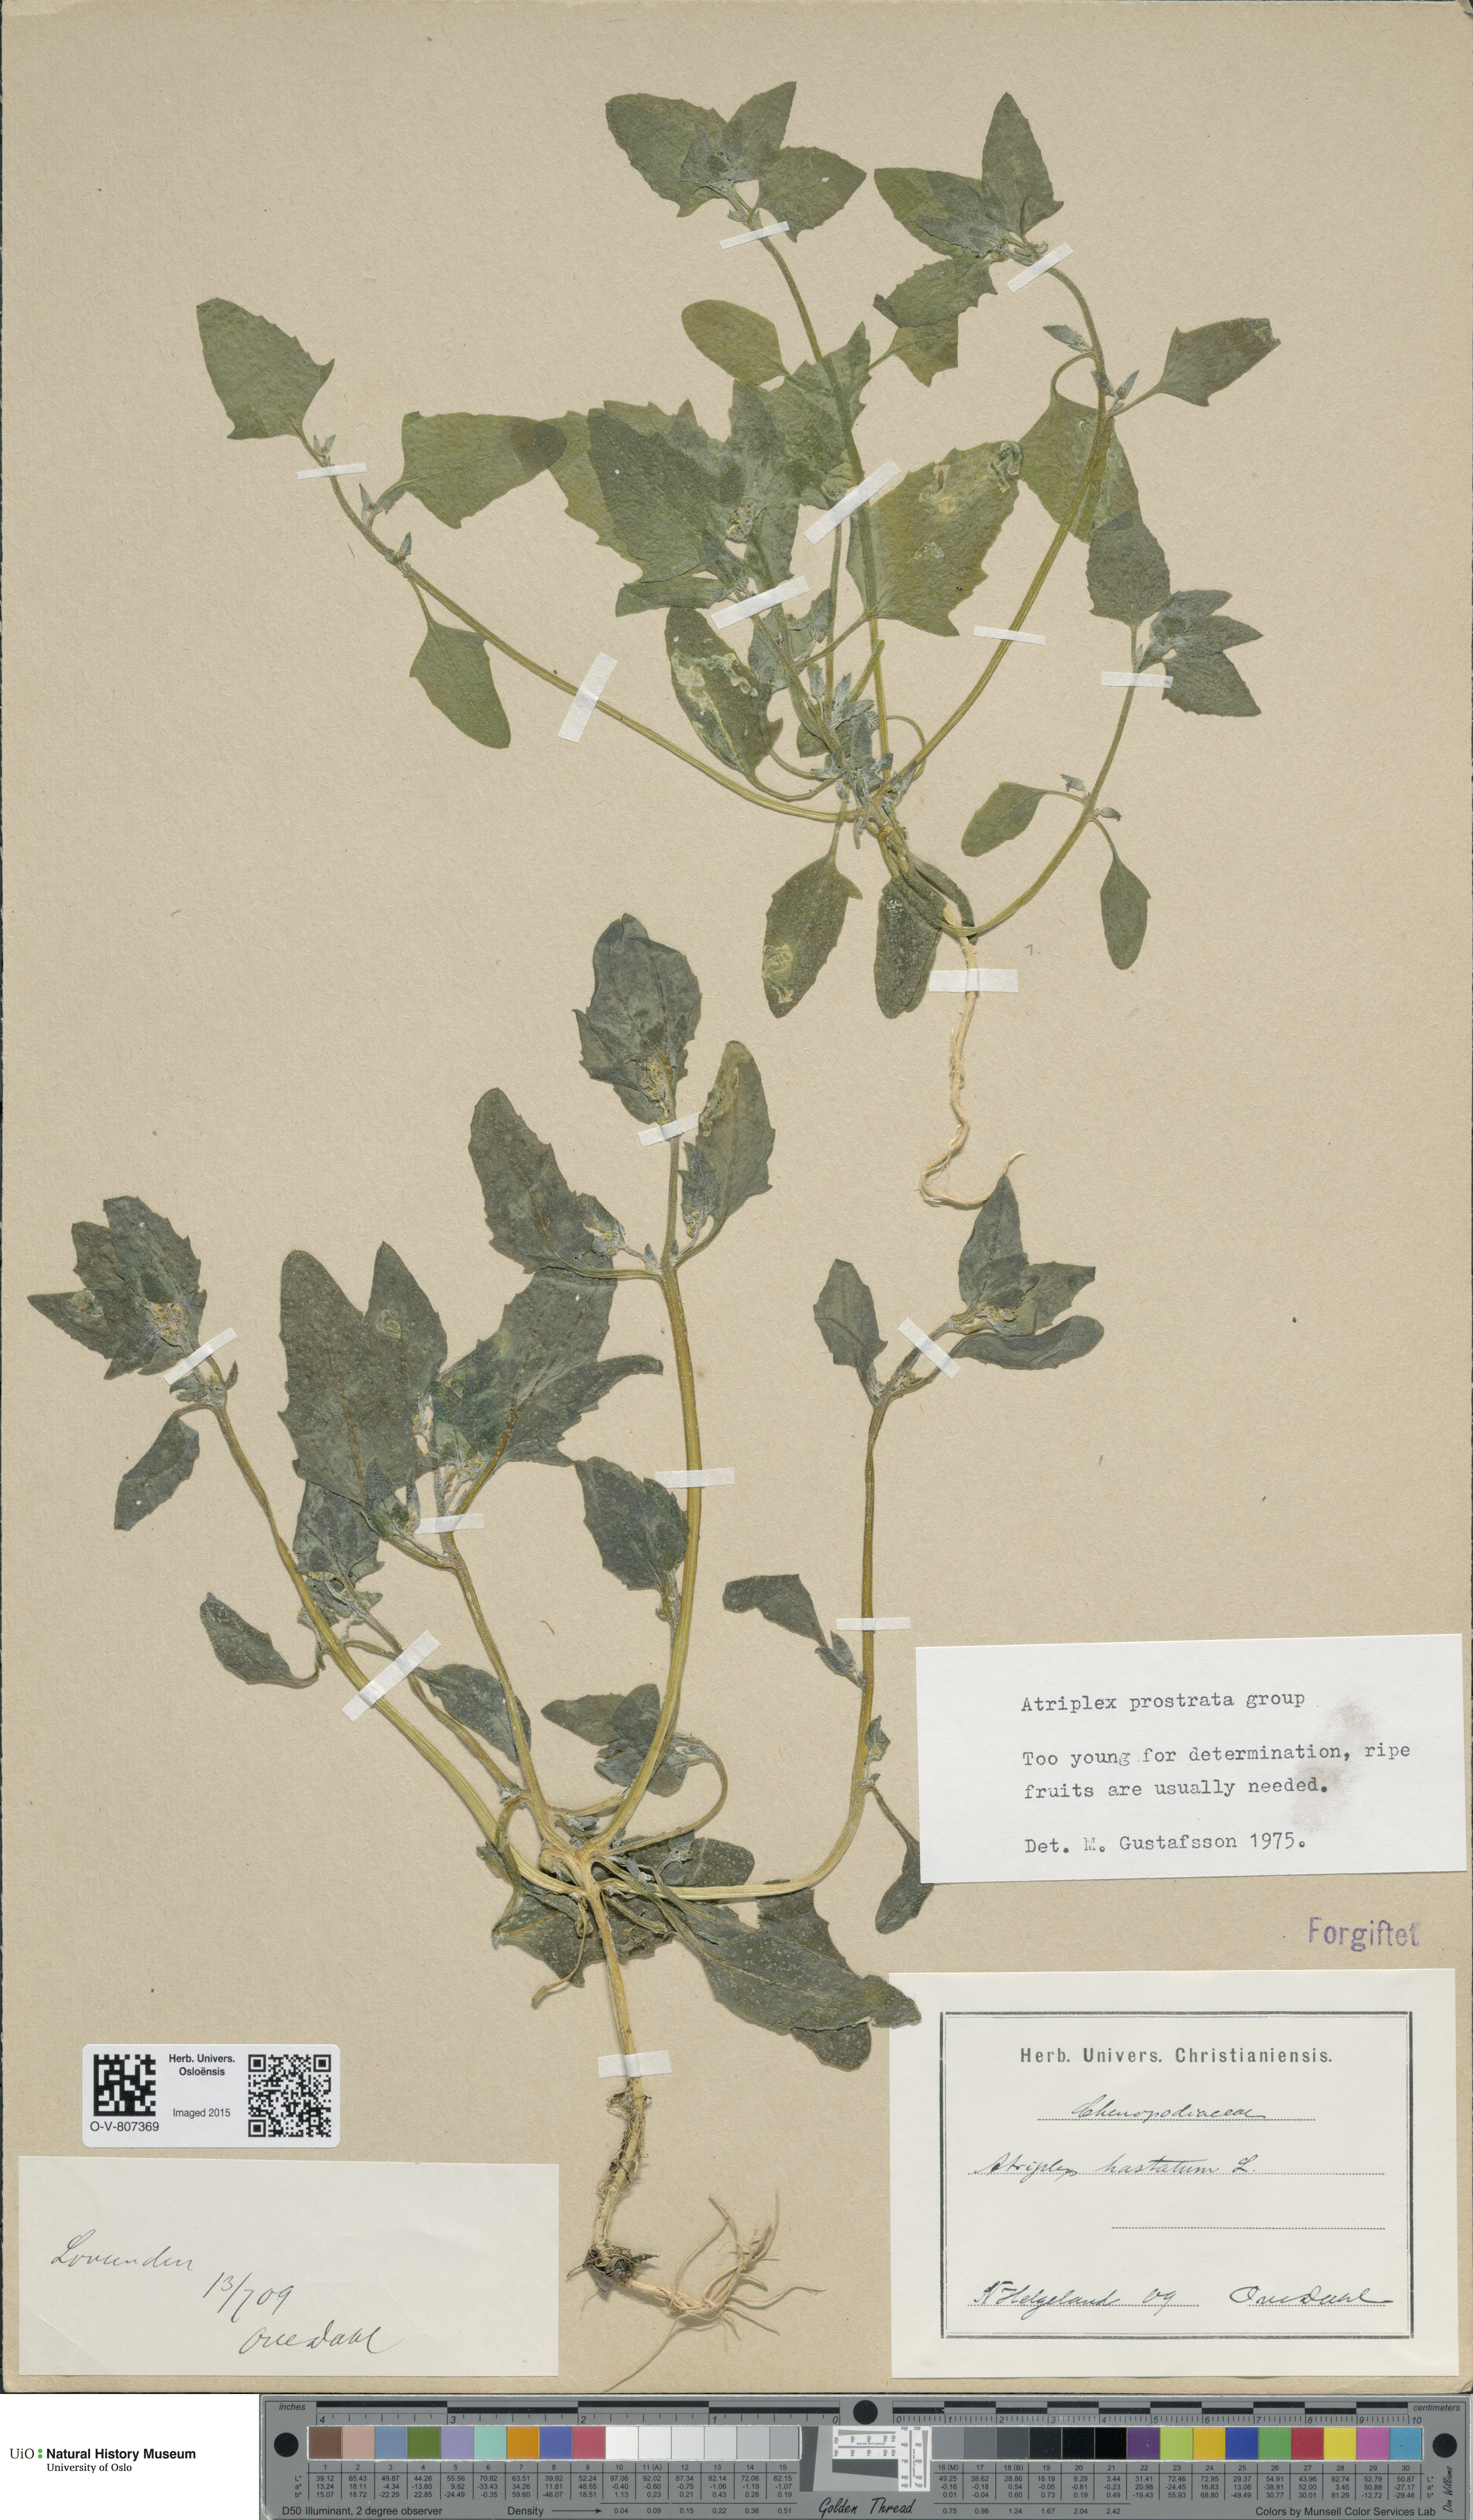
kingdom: Plantae
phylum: Tracheophyta
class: Magnoliopsida
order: Caryophyllales
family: Amaranthaceae
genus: Atriplex
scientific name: Atriplex prostrata
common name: Spear-leaved orache
